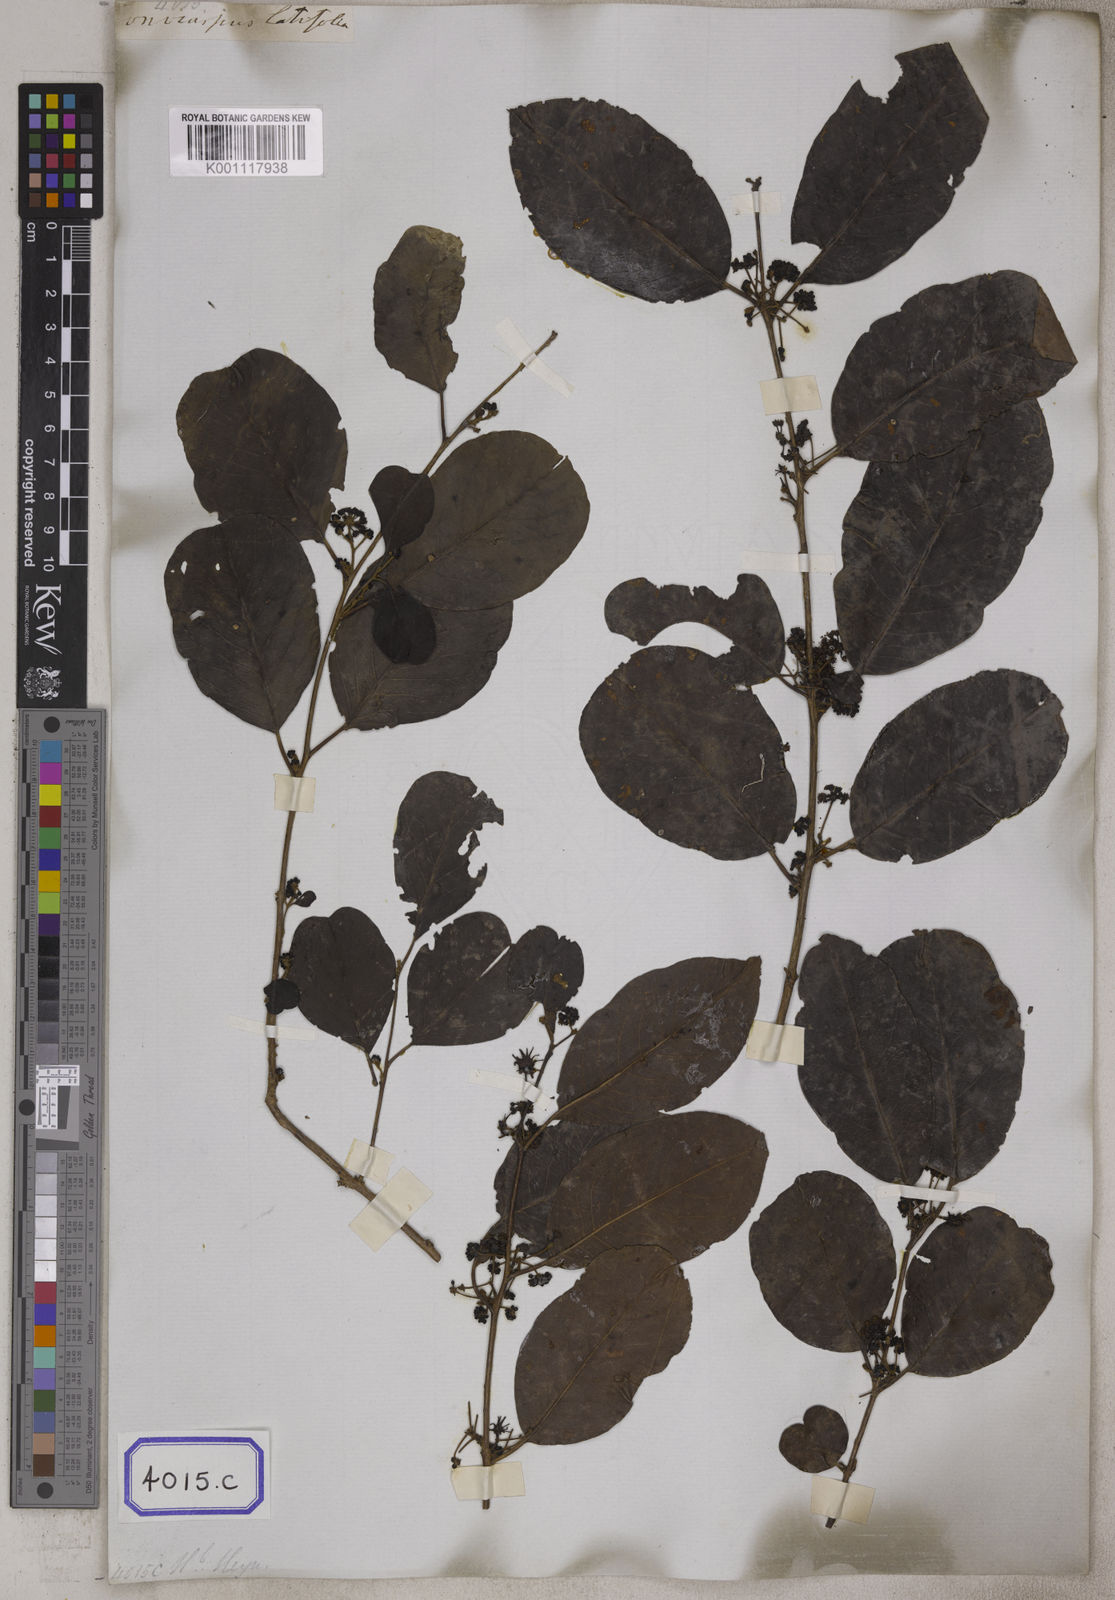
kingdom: Plantae
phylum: Tracheophyta
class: Magnoliopsida
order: Myrtales
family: Combretaceae
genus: Anogeissus
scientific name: Anogeissus
